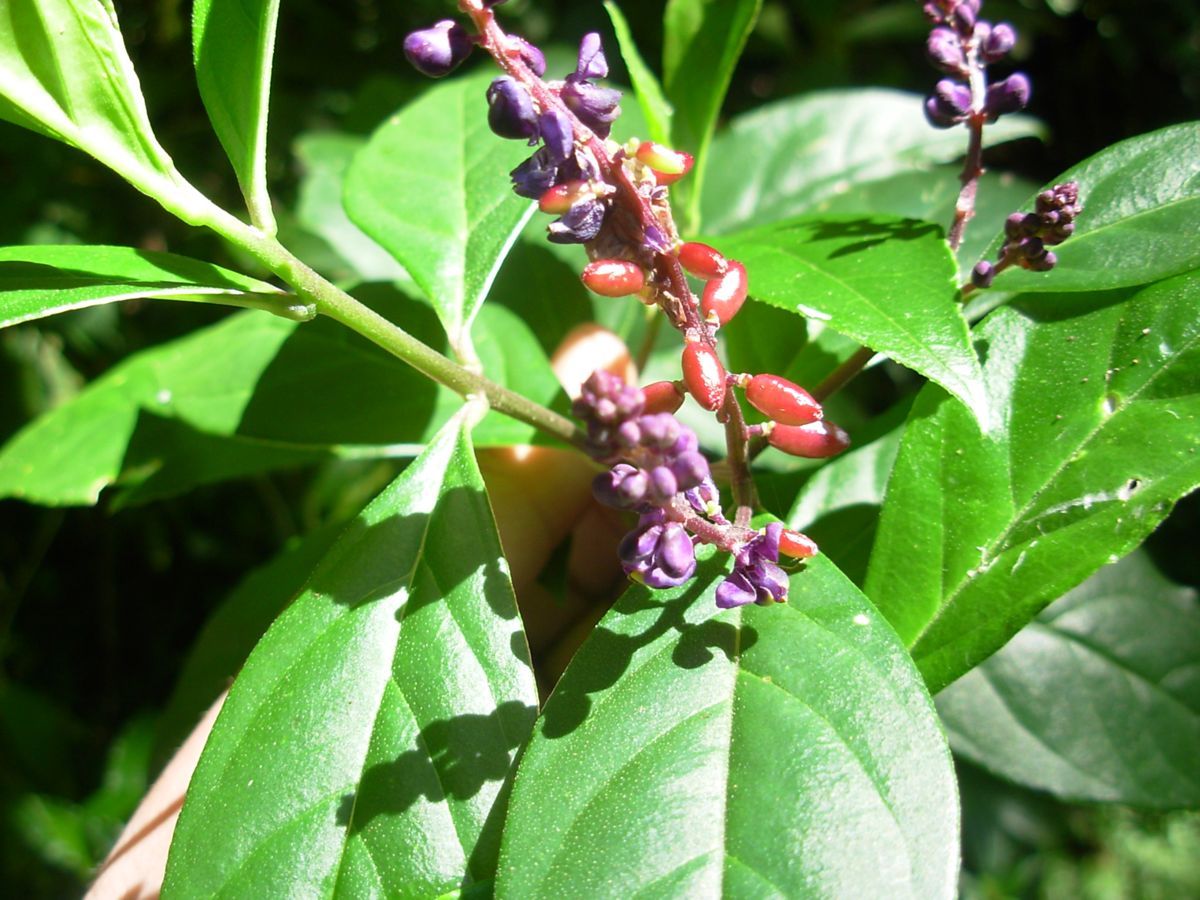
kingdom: Plantae
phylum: Tracheophyta
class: Magnoliopsida
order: Fabales
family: Polygalaceae
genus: Monnina
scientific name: Monnina sylvatica
